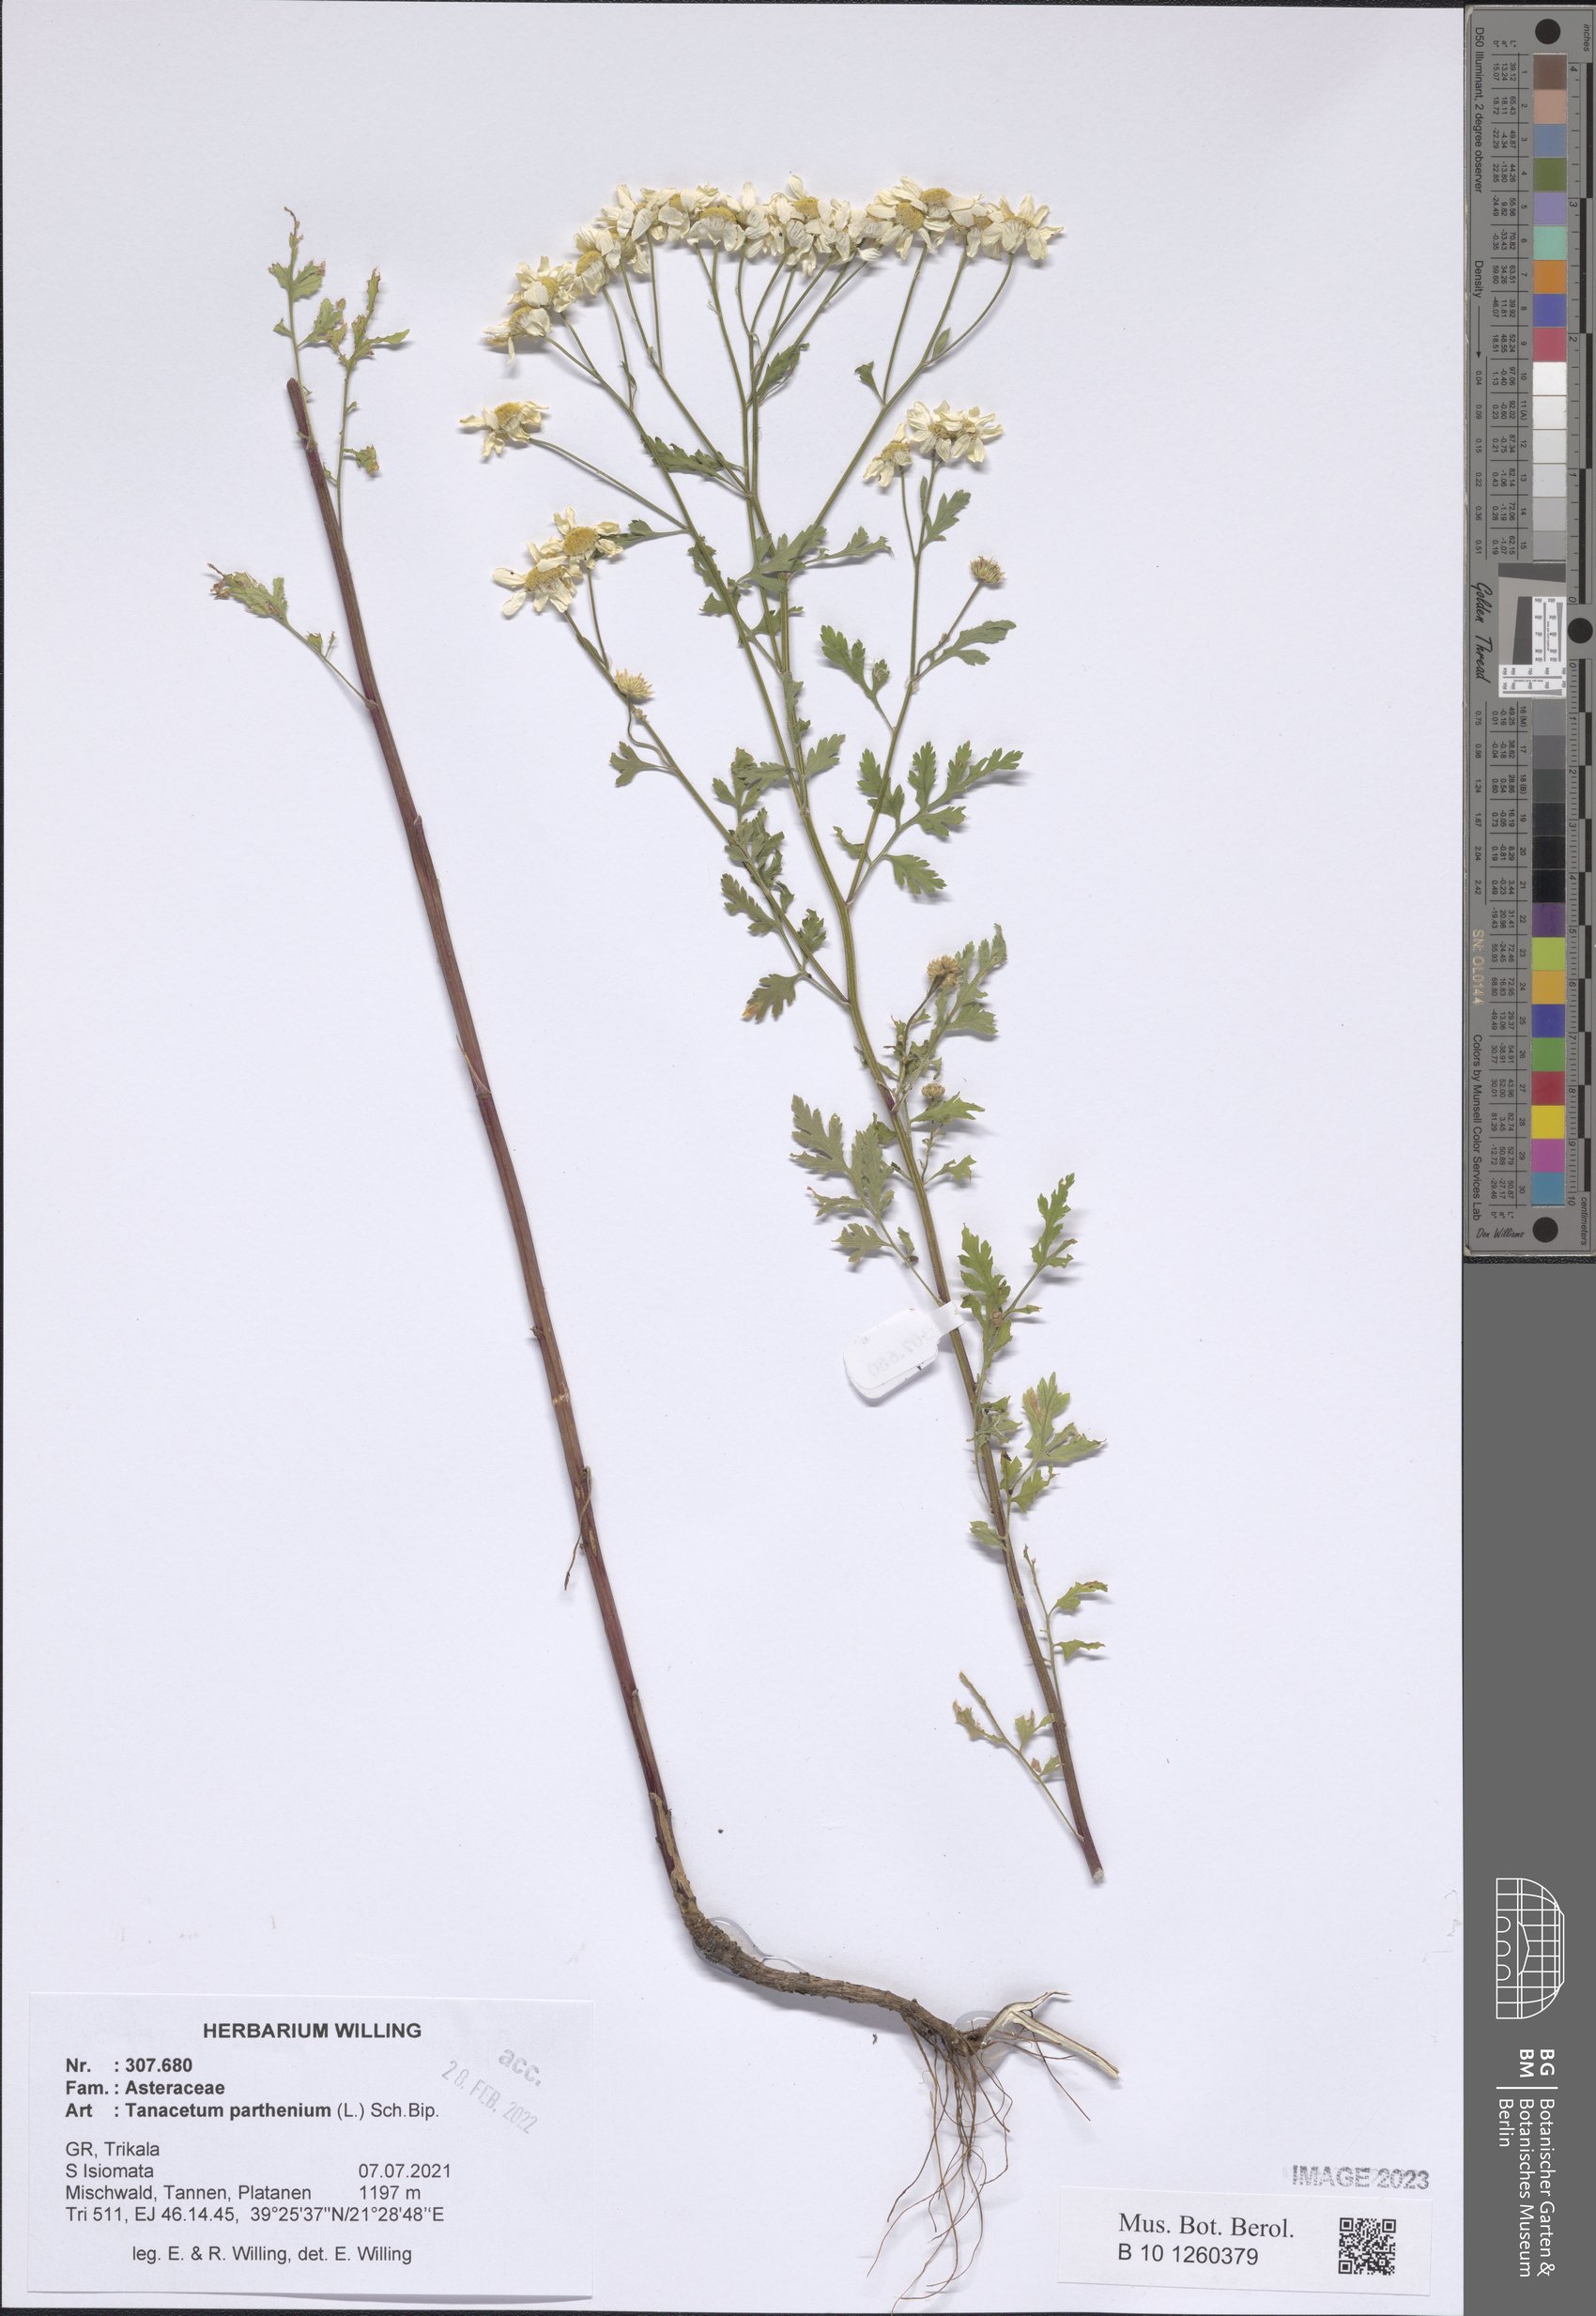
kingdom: Plantae
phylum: Tracheophyta
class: Magnoliopsida
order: Asterales
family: Asteraceae
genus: Tanacetum
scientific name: Tanacetum parthenium
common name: Feverfew
